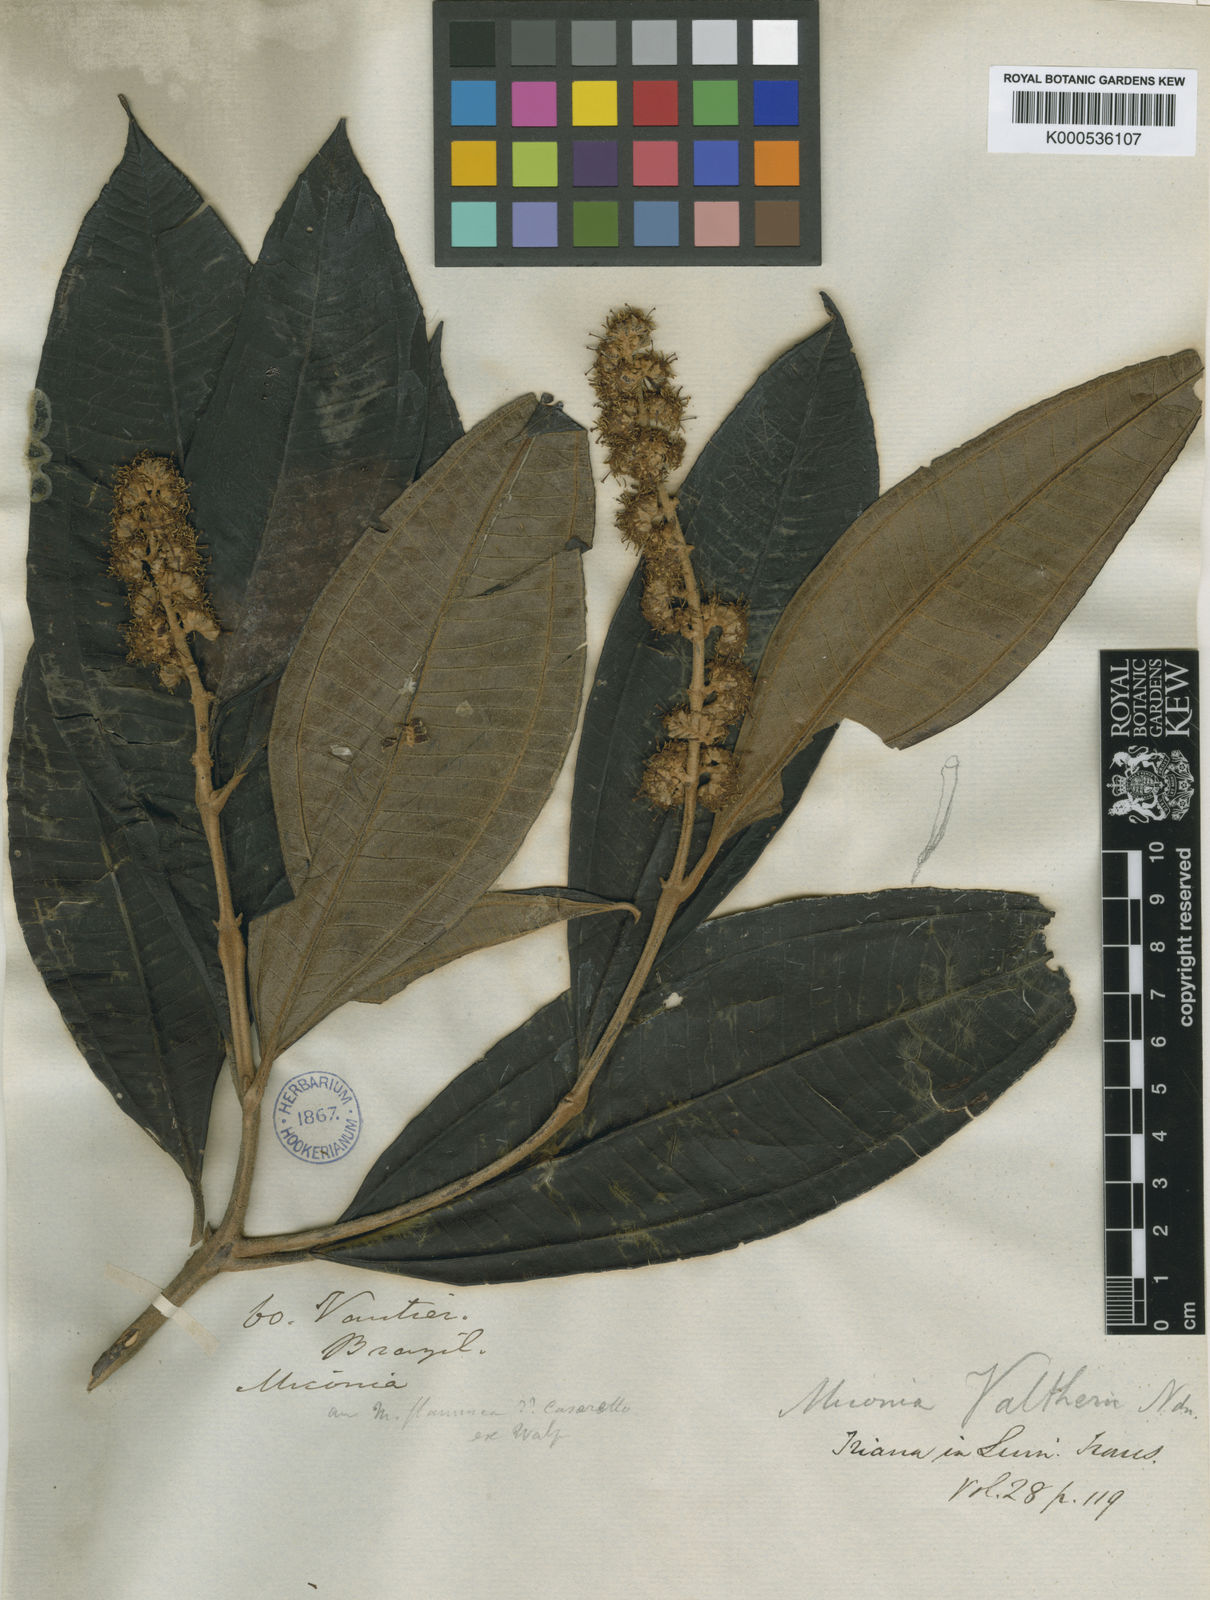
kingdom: Plantae
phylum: Tracheophyta
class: Magnoliopsida
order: Myrtales
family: Melastomataceae
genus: Miconia
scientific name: Miconia valtheri
